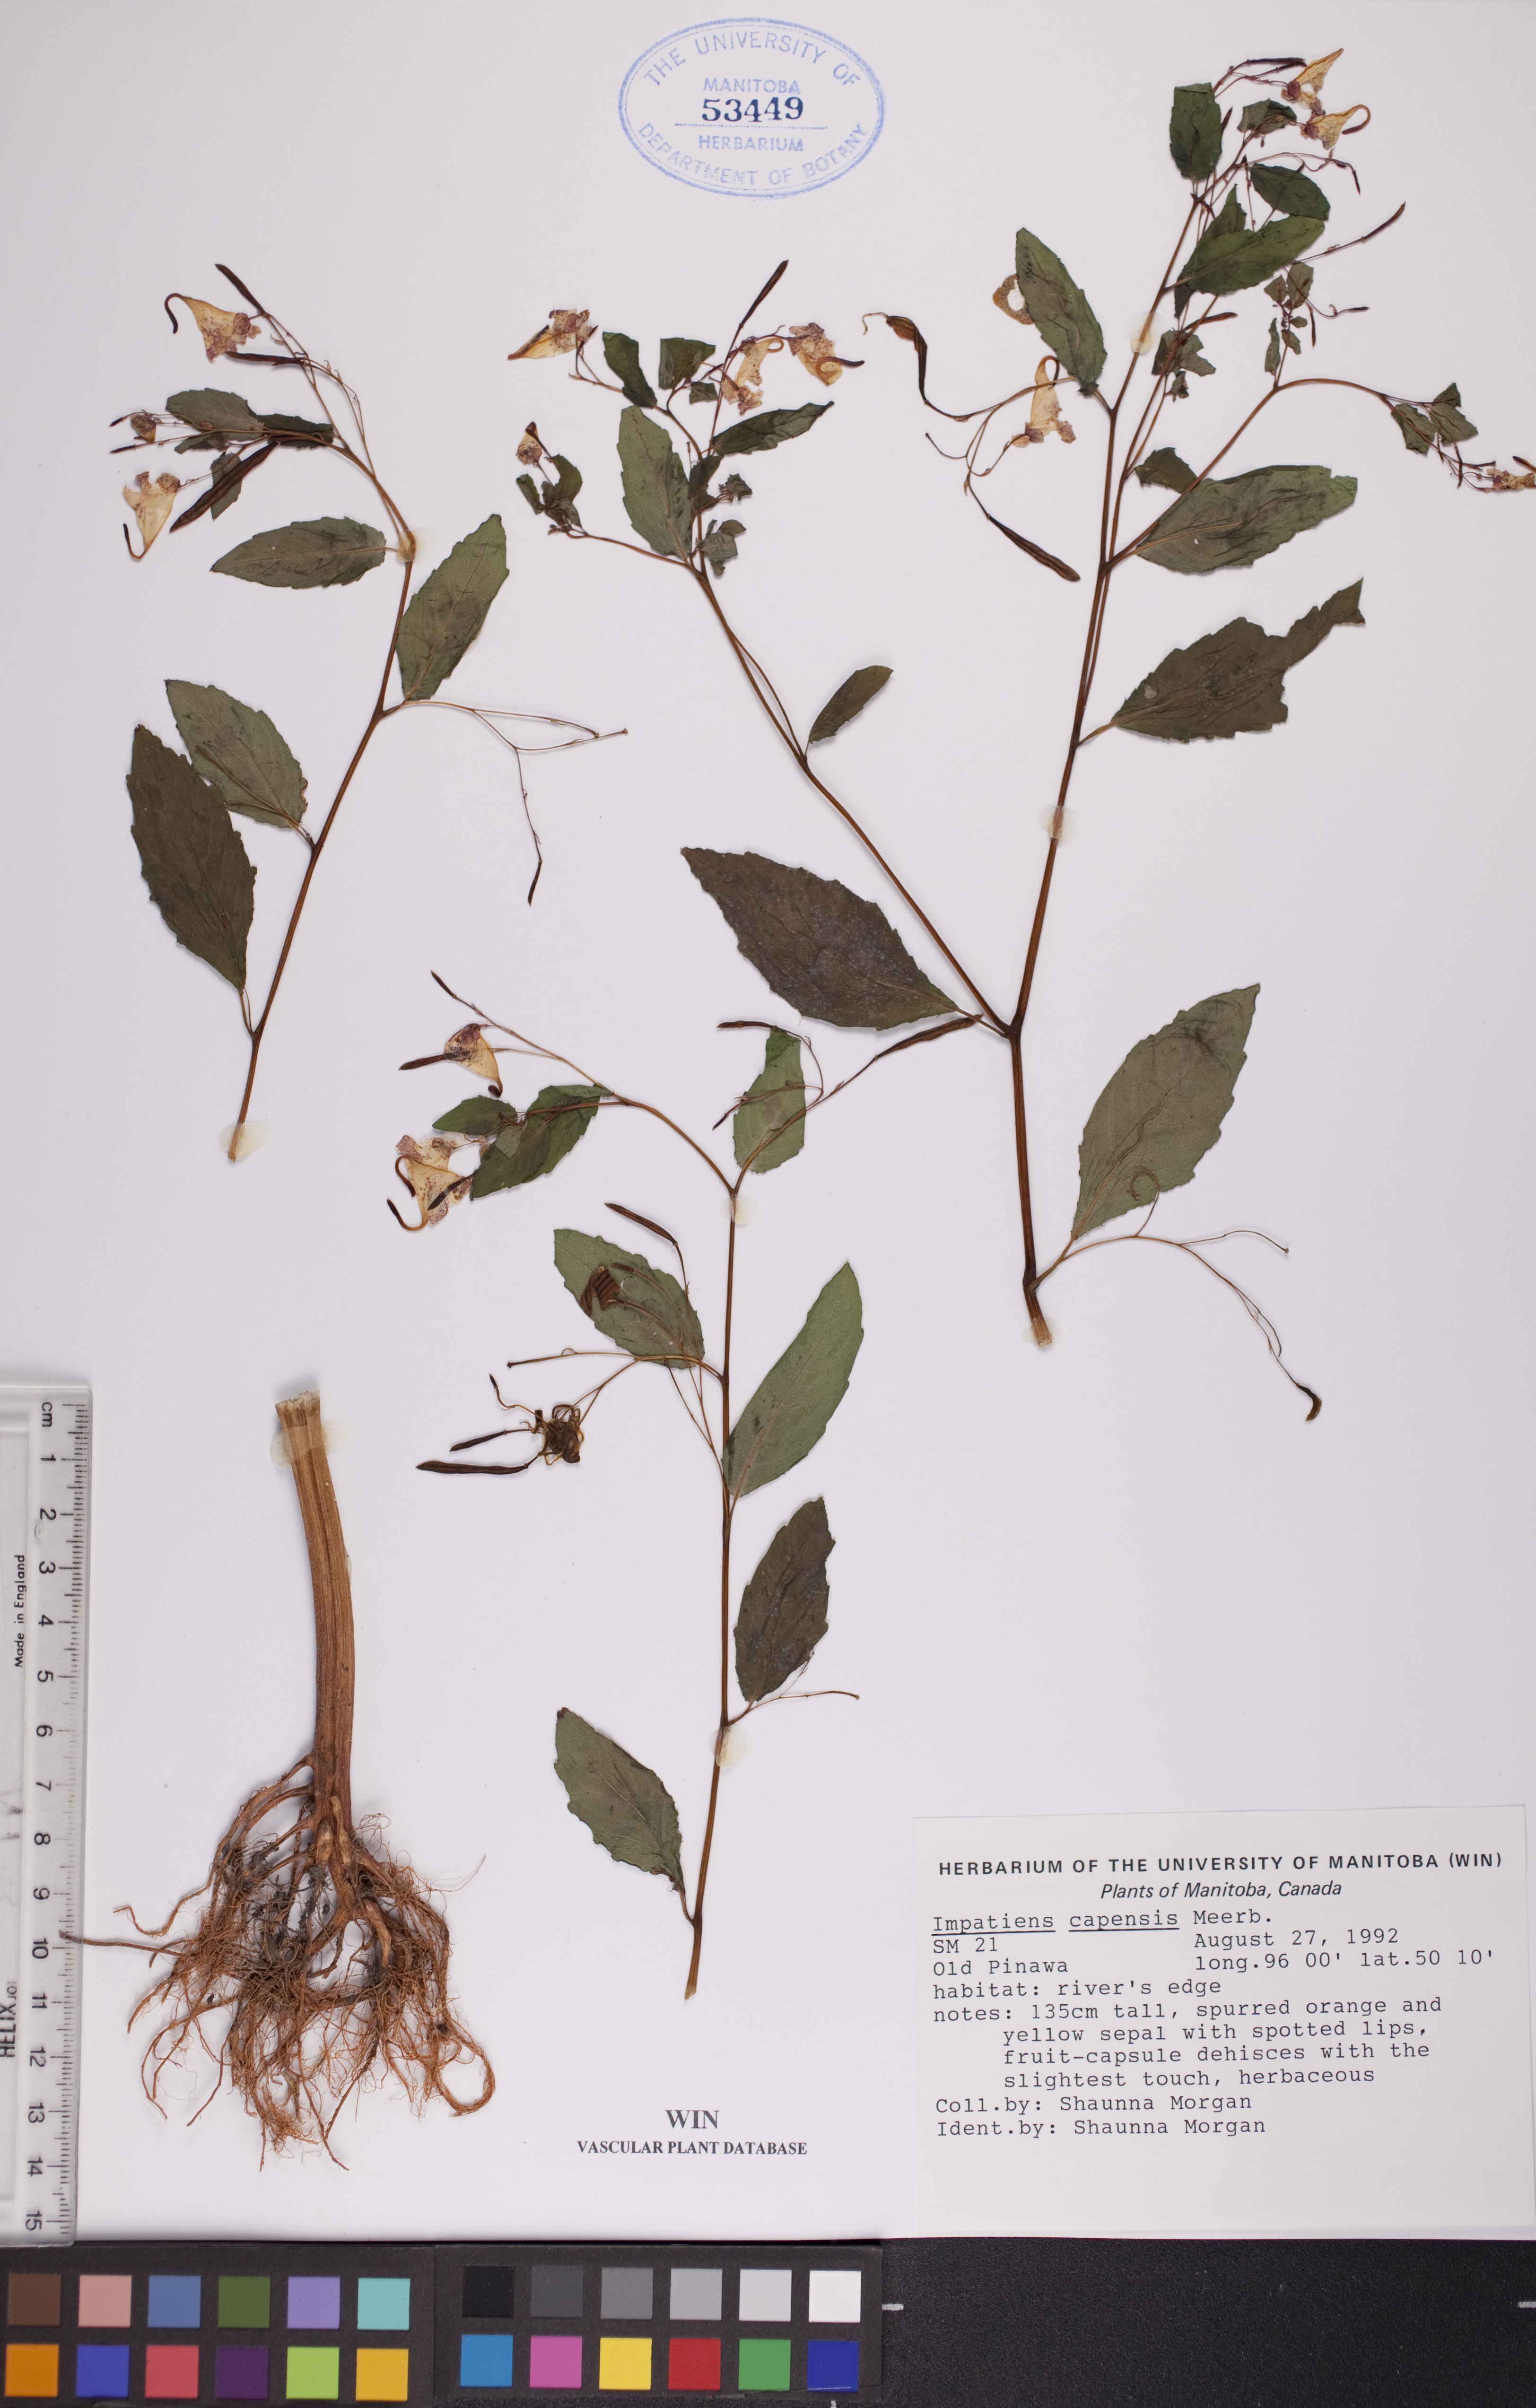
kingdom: Plantae
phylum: Tracheophyta
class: Magnoliopsida
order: Ericales
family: Balsaminaceae
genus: Impatiens
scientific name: Impatiens capensis
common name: Orange balsam
